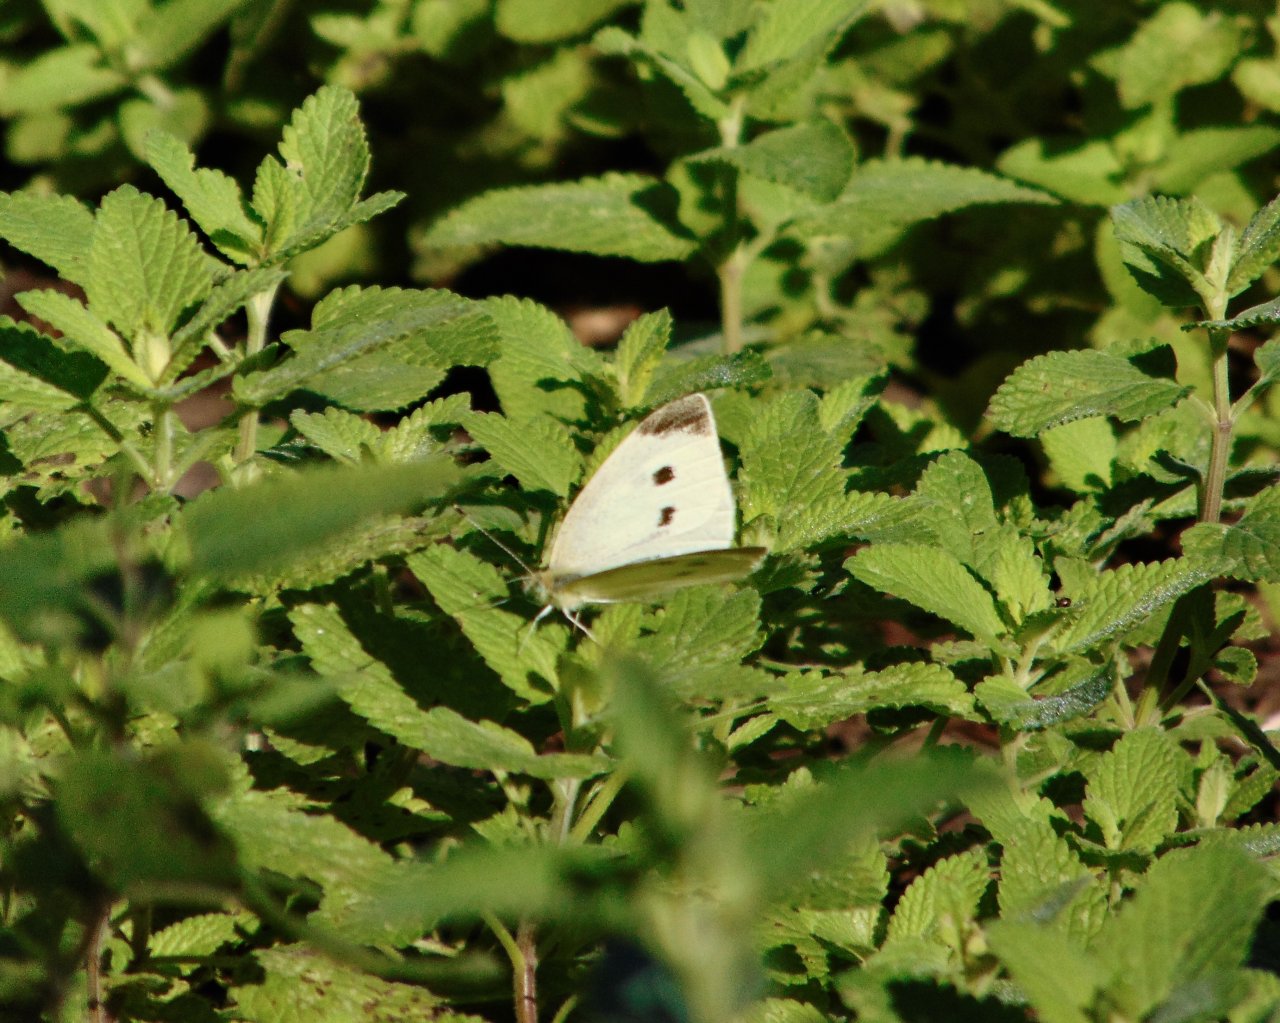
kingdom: Animalia
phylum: Arthropoda
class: Insecta
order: Lepidoptera
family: Pieridae
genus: Pieris
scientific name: Pieris rapae
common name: Cabbage White
